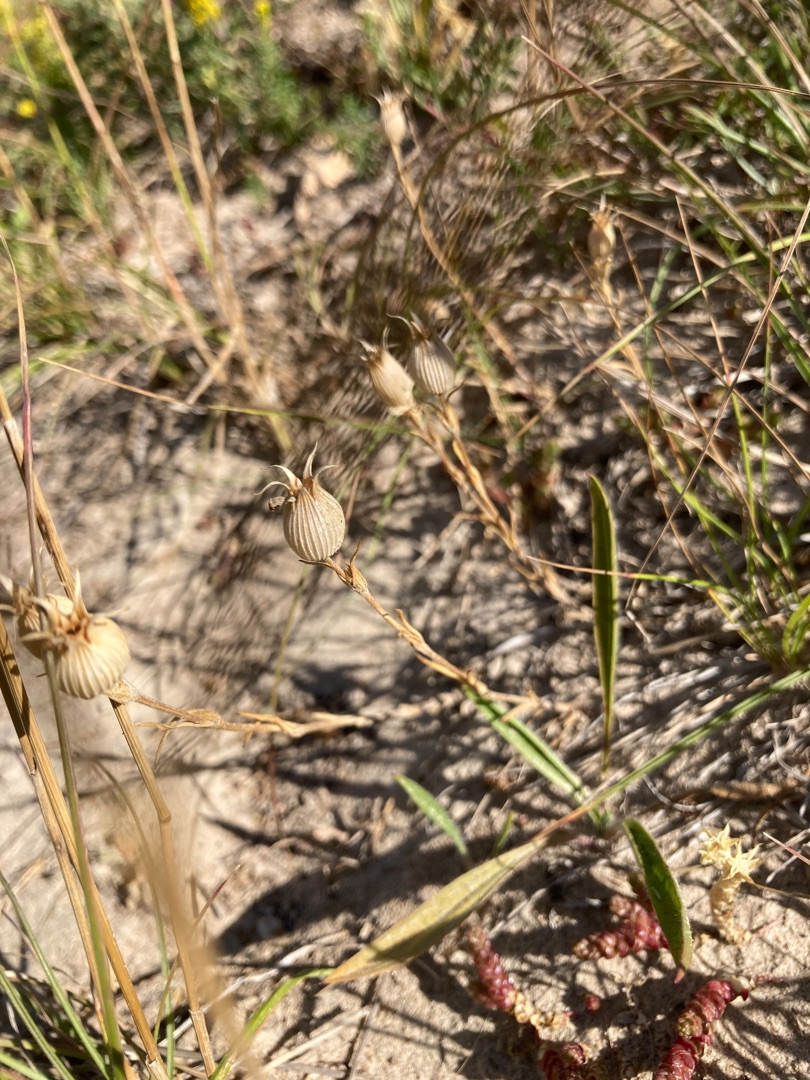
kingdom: Plantae
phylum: Tracheophyta
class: Magnoliopsida
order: Caryophyllales
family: Caryophyllaceae
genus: Silene
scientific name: Silene conica
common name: Kegle-limurt
